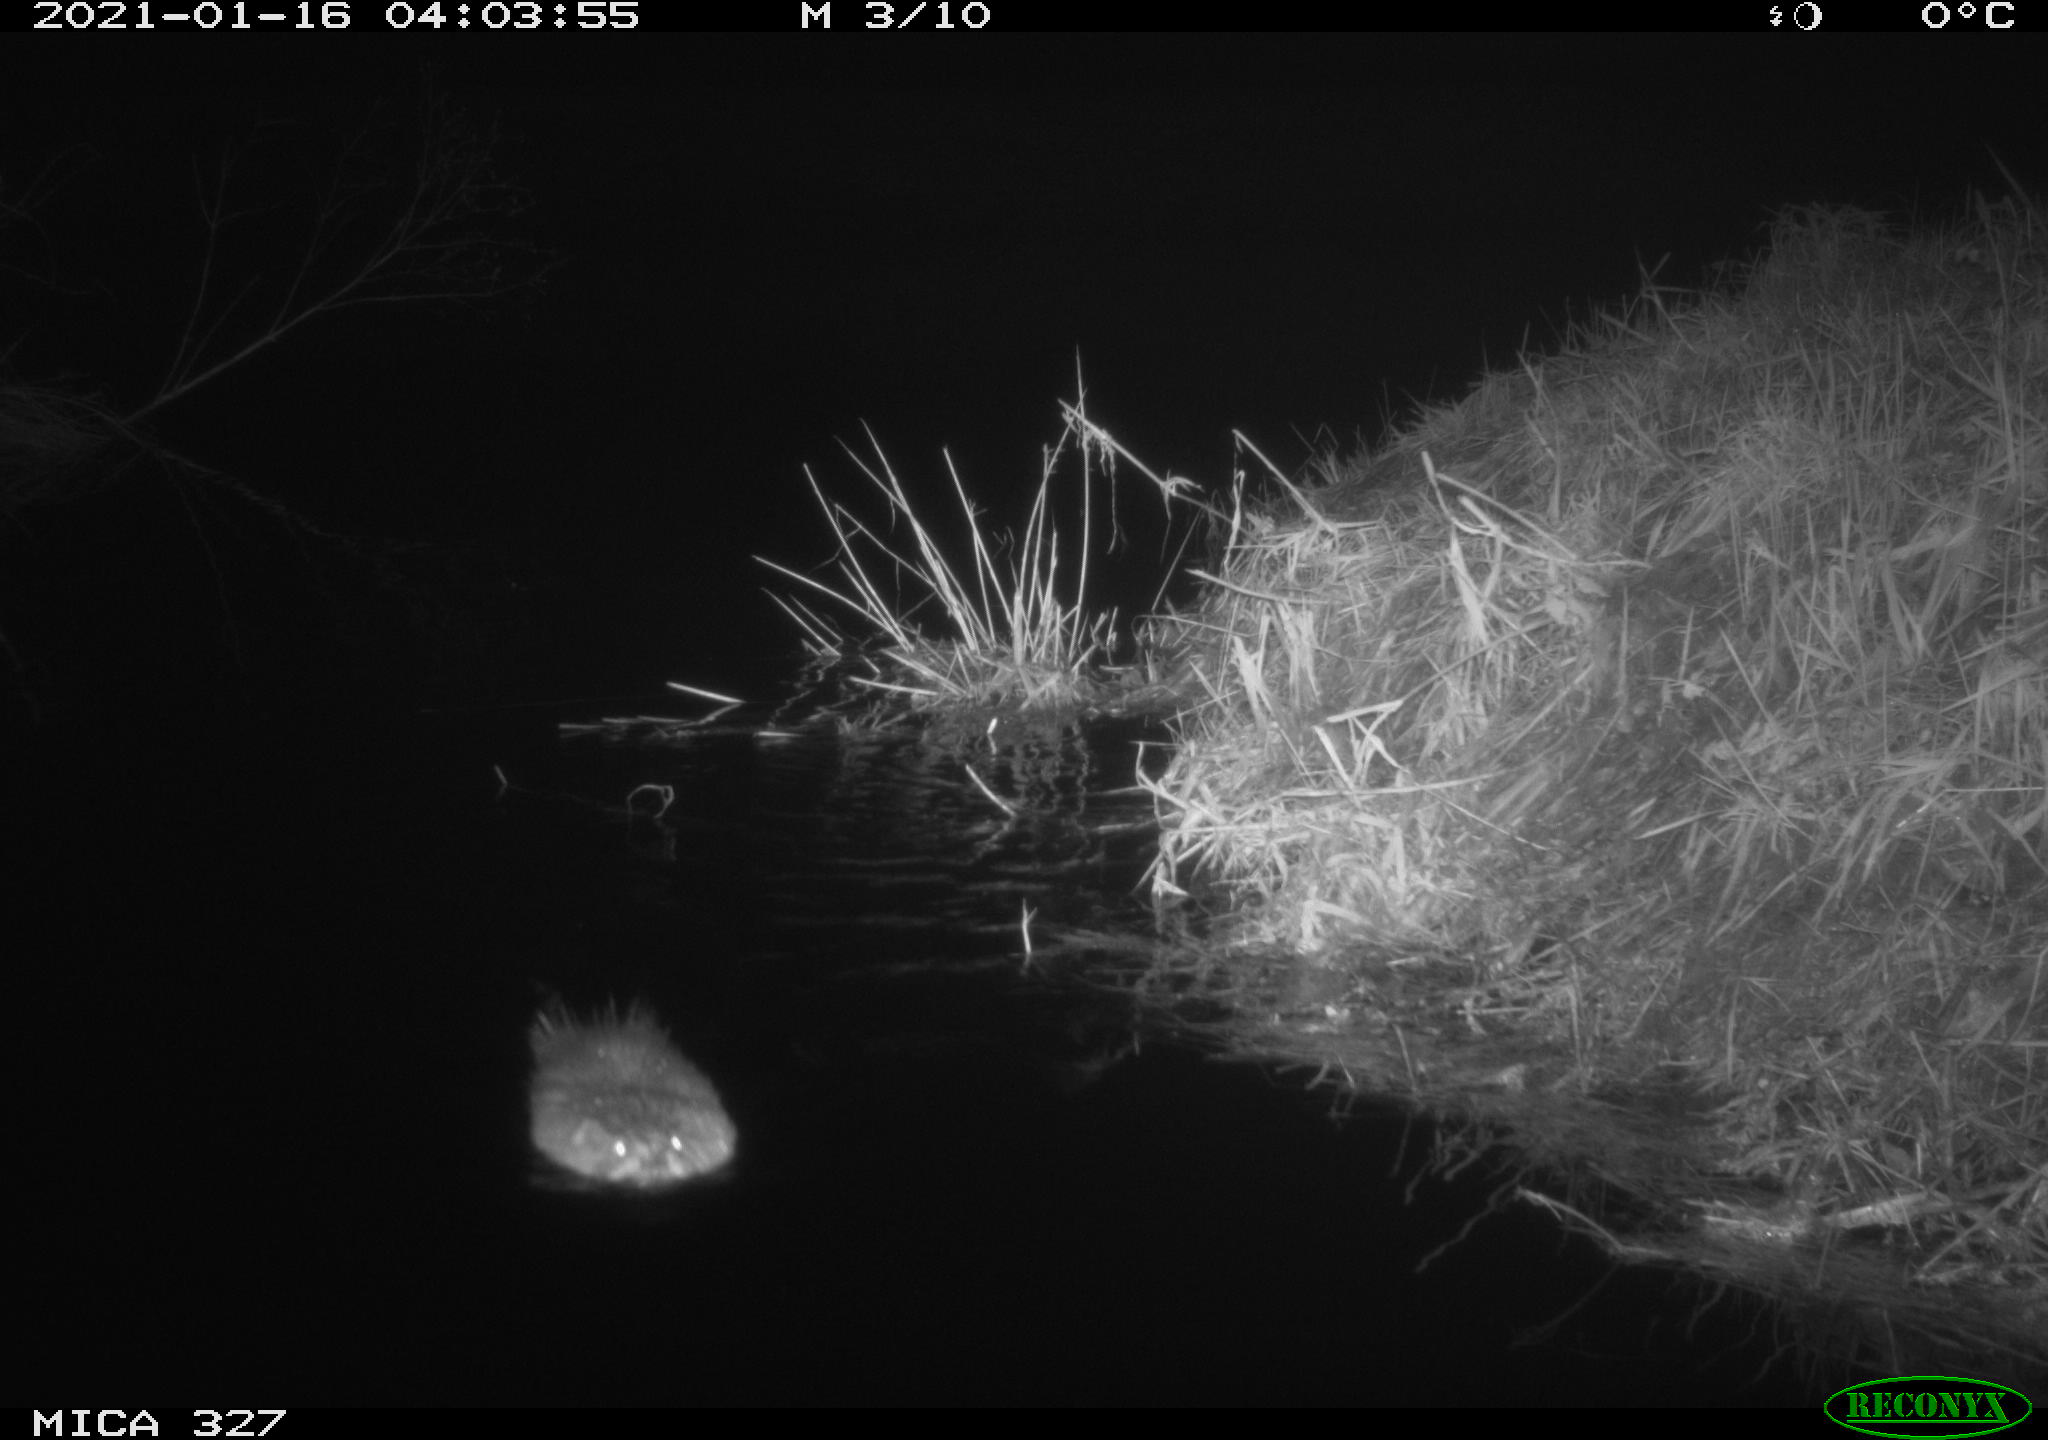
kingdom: Animalia
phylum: Chordata
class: Mammalia
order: Rodentia
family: Cricetidae
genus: Ondatra
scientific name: Ondatra zibethicus
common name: Muskrat
